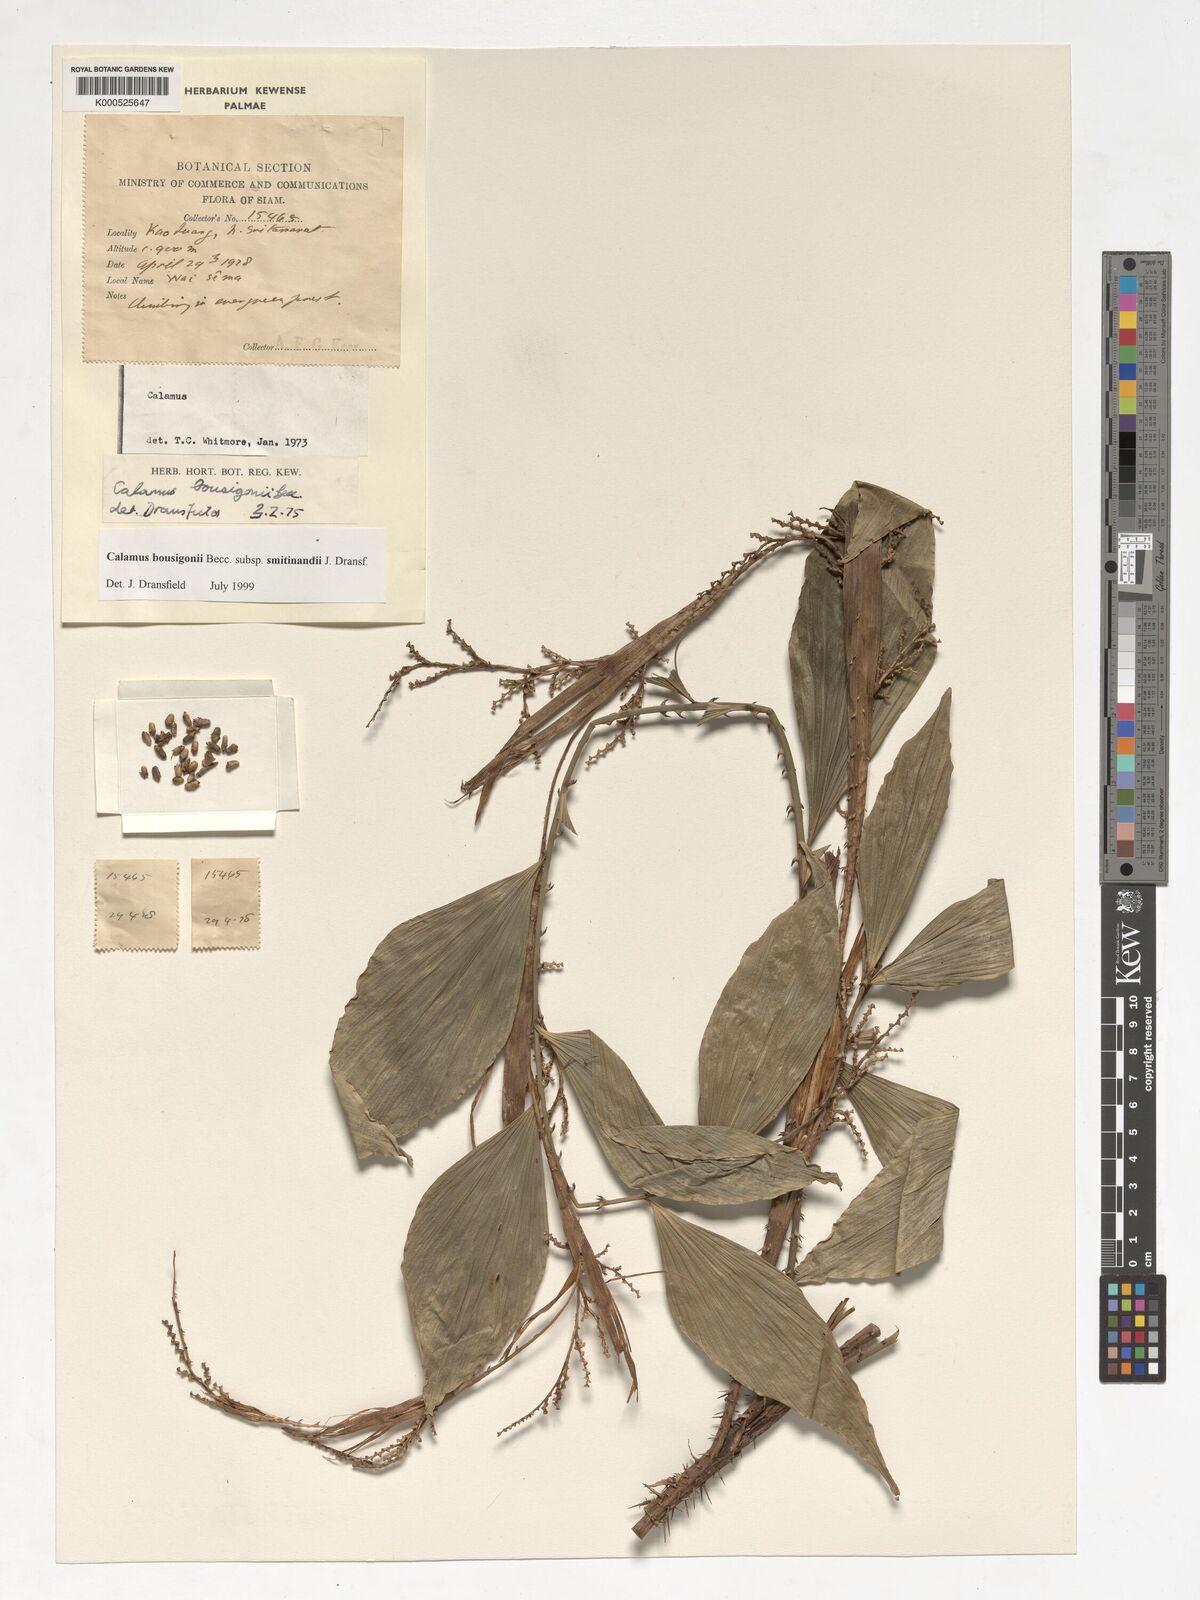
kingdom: Plantae
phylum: Tracheophyta
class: Liliopsida
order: Arecales
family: Arecaceae
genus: Calamus
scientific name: Calamus smitinandii
